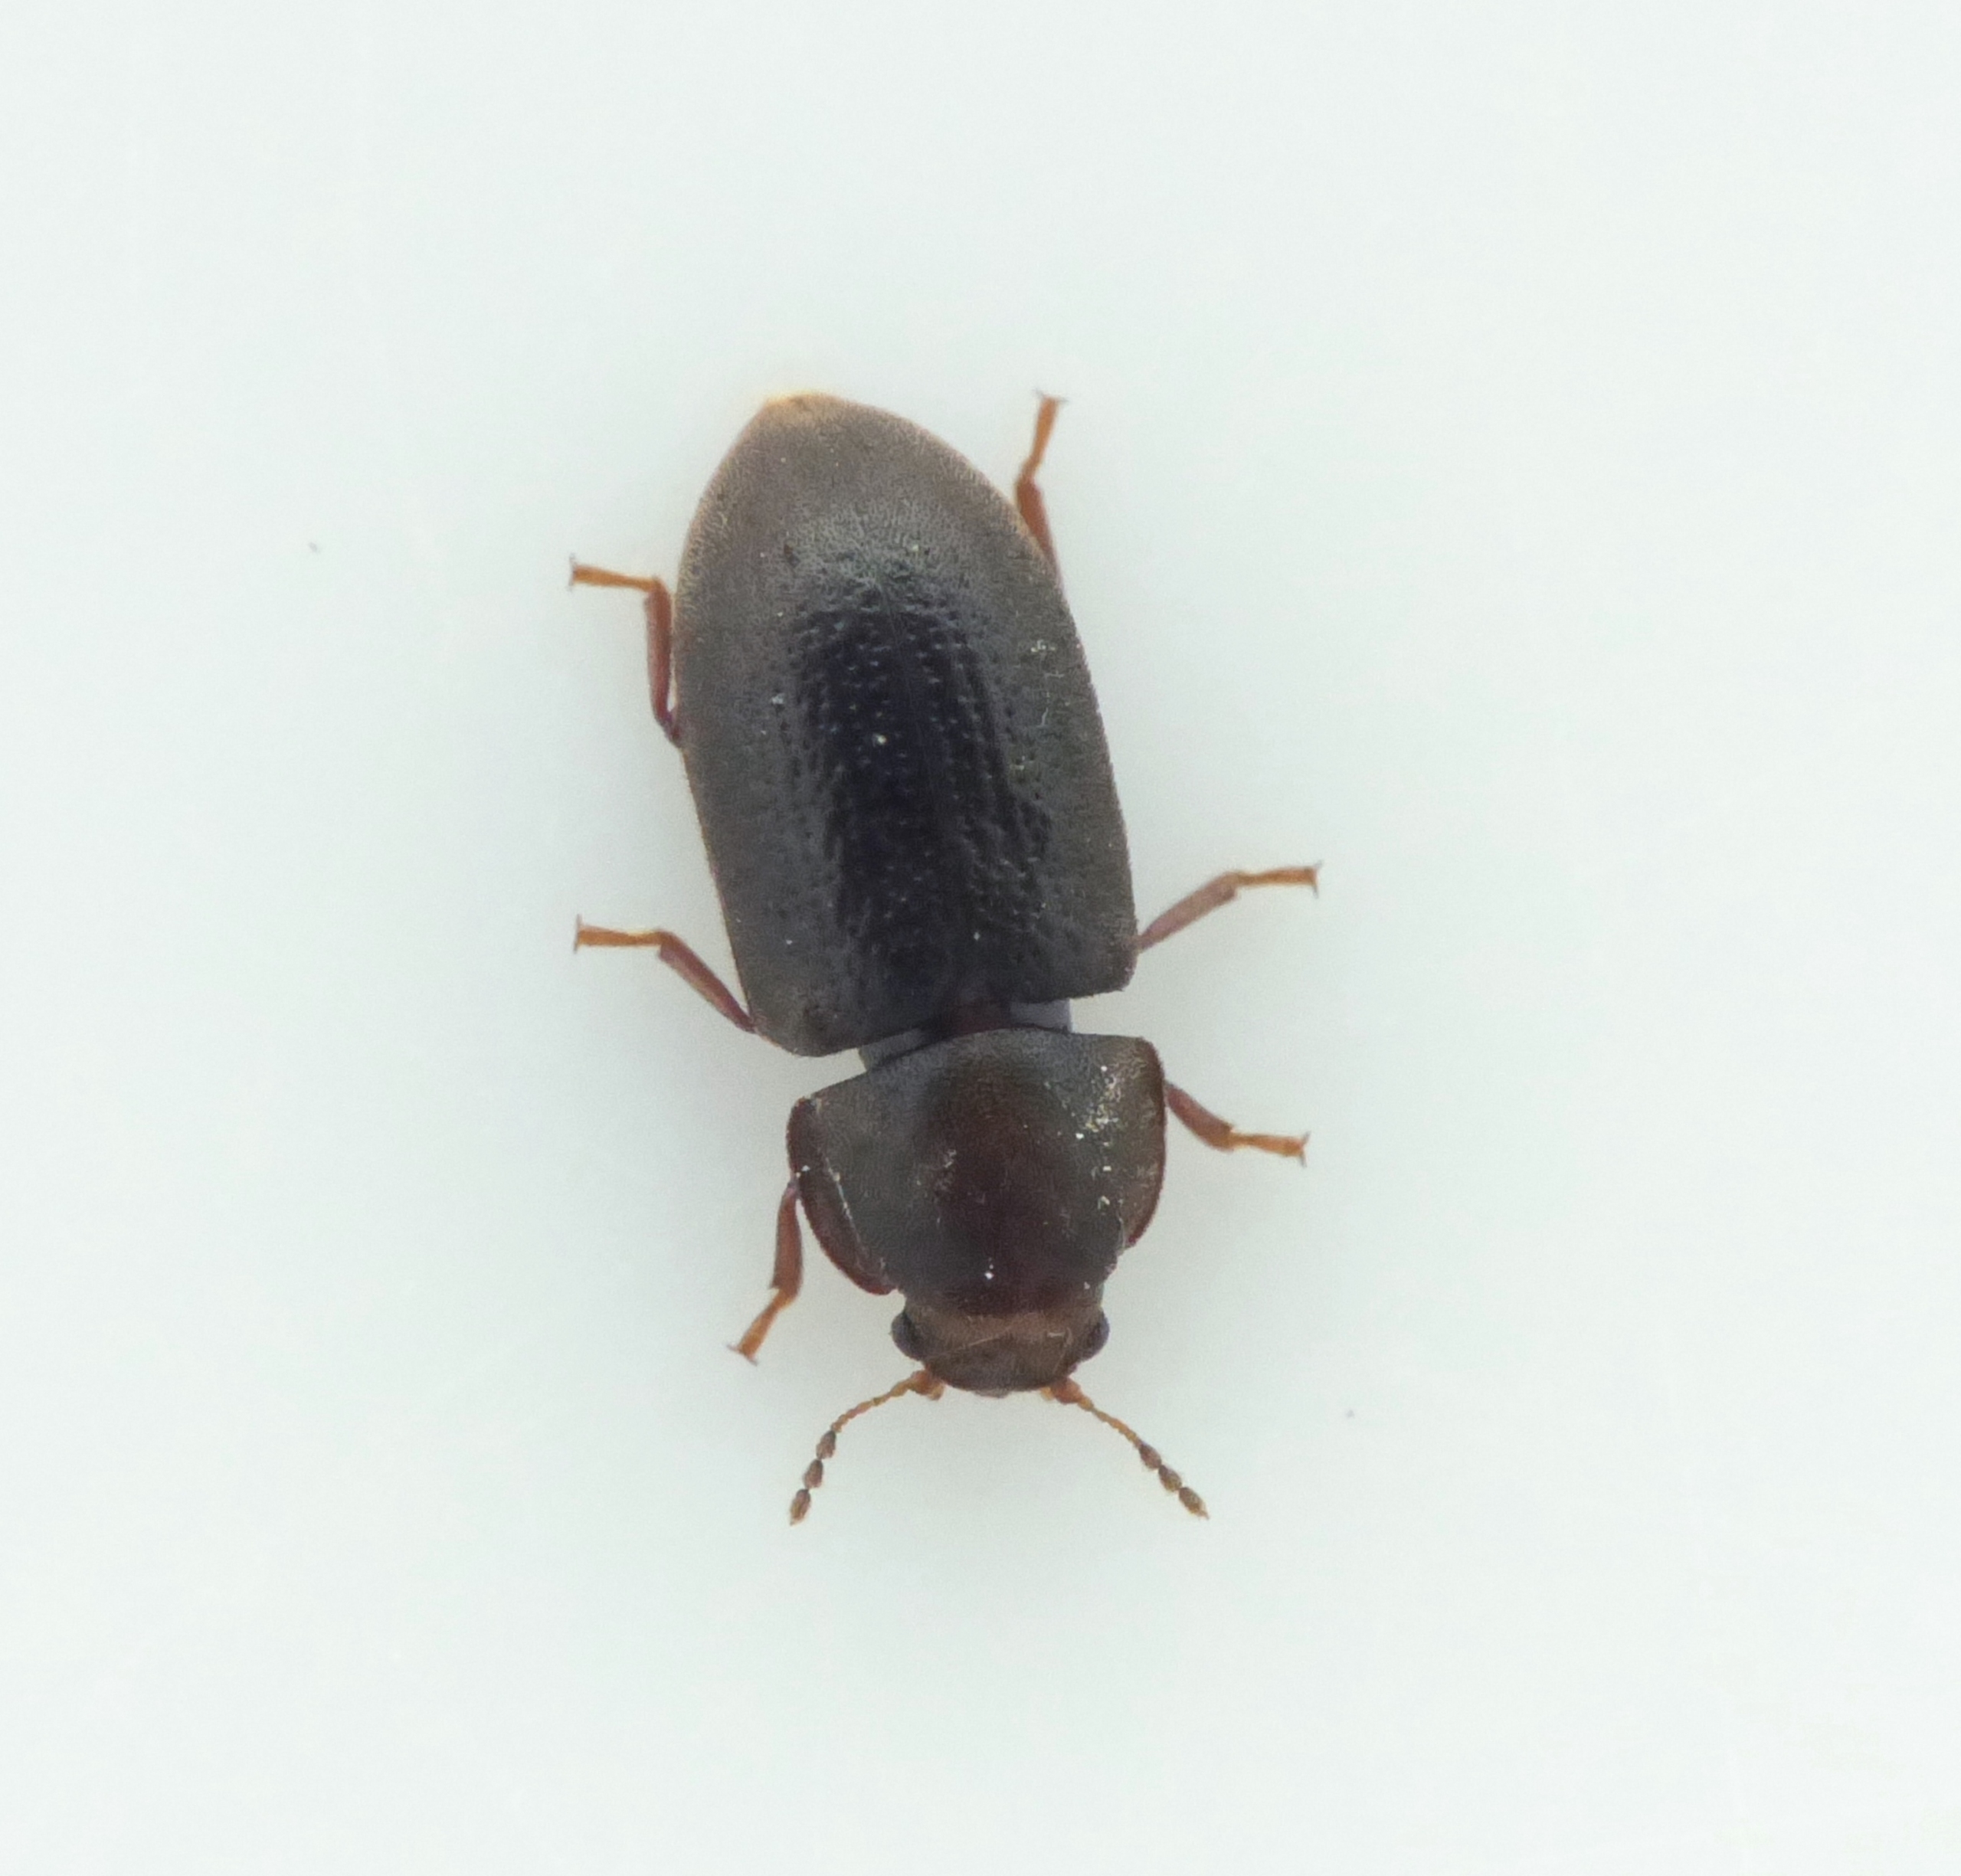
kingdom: Animalia
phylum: Arthropoda
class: Insecta
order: Coleoptera
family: Ciidae
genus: Cis
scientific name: Cis boleti
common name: Stor svampeborer
